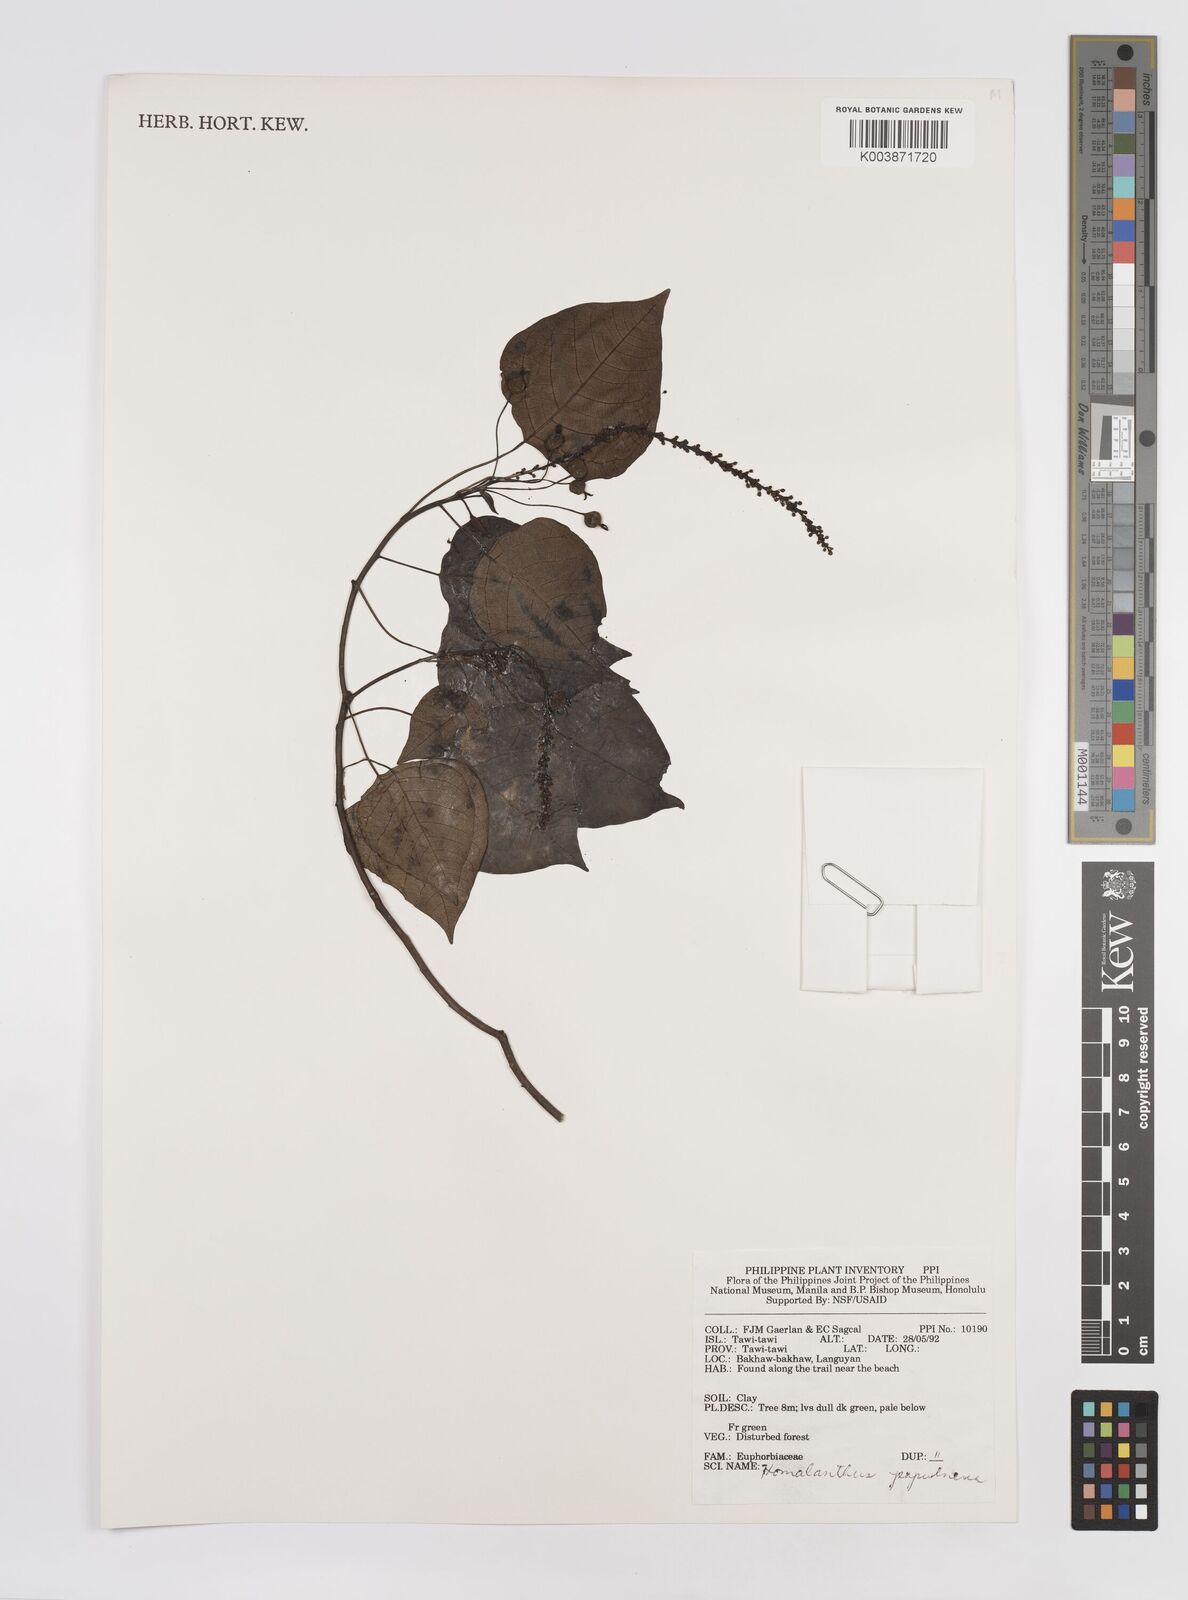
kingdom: Plantae
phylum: Tracheophyta
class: Magnoliopsida
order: Malpighiales
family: Euphorbiaceae
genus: Homalanthus
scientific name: Homalanthus populneus
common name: Spurge
